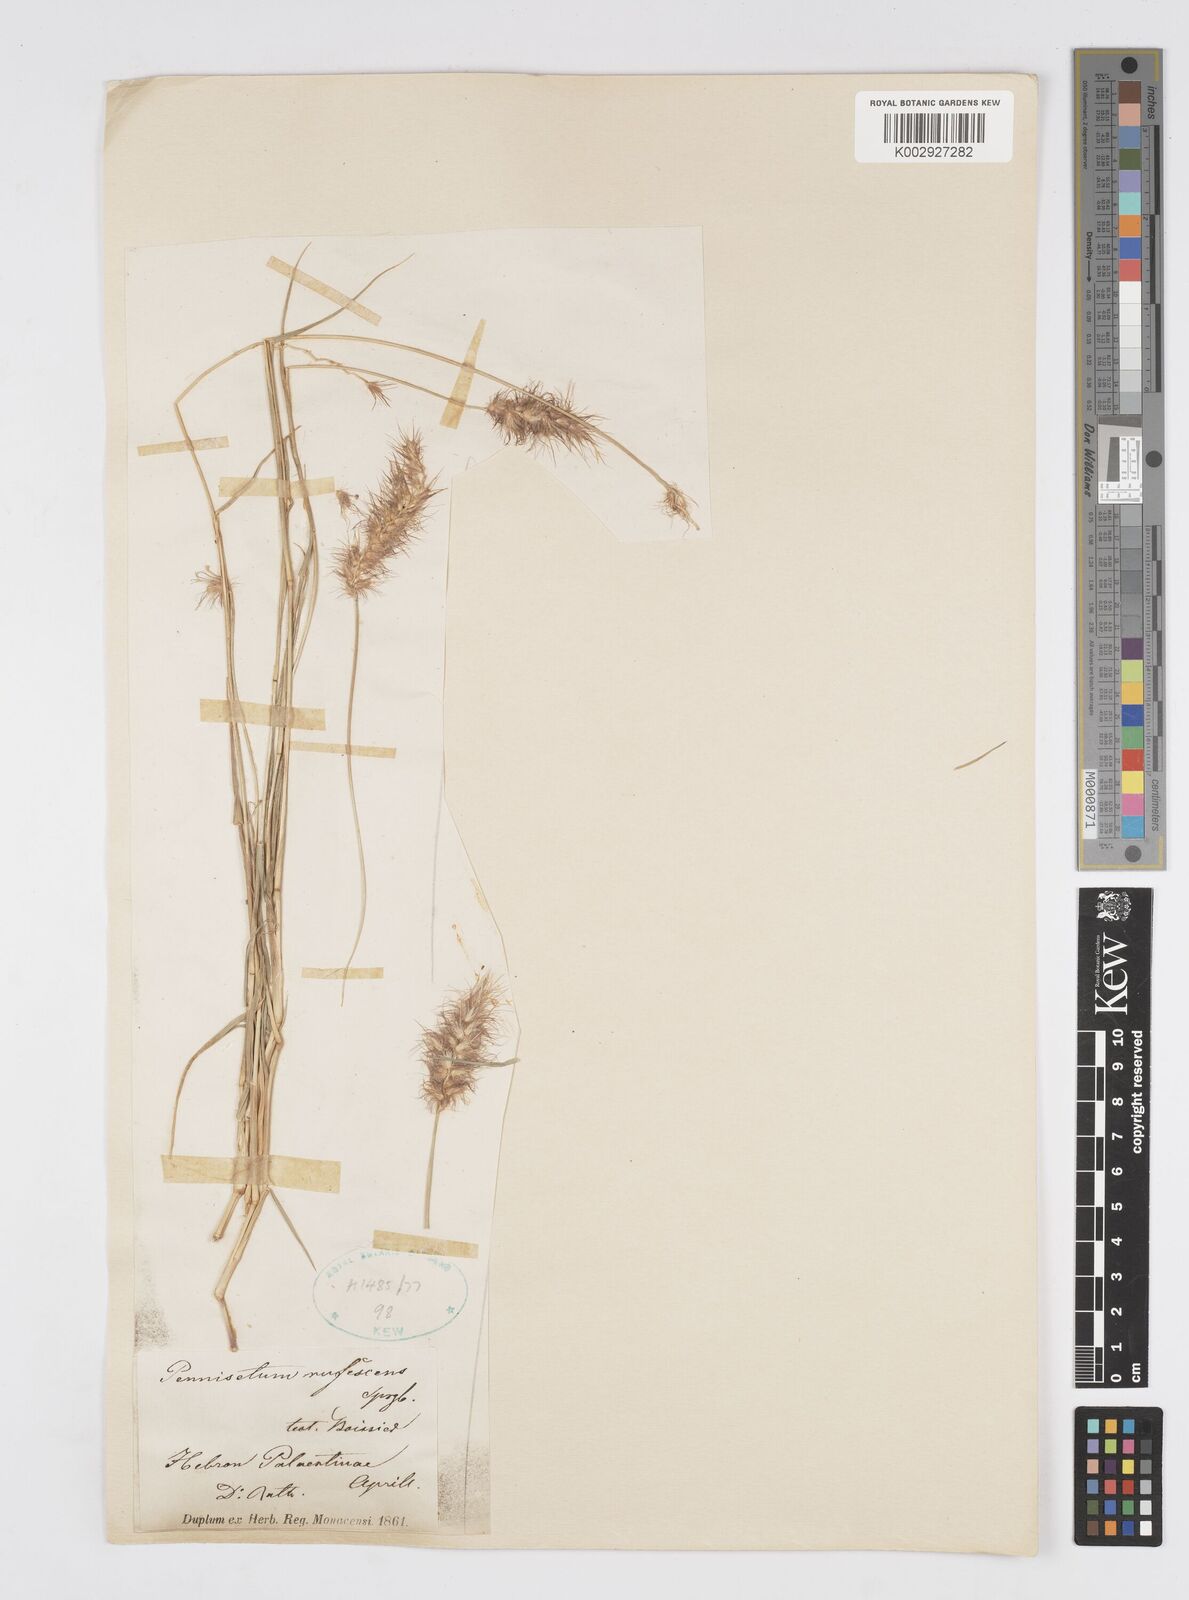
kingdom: Plantae
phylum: Tracheophyta
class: Liliopsida
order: Poales
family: Poaceae
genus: Cenchrus
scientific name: Cenchrus ciliaris
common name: Buffelgrass
